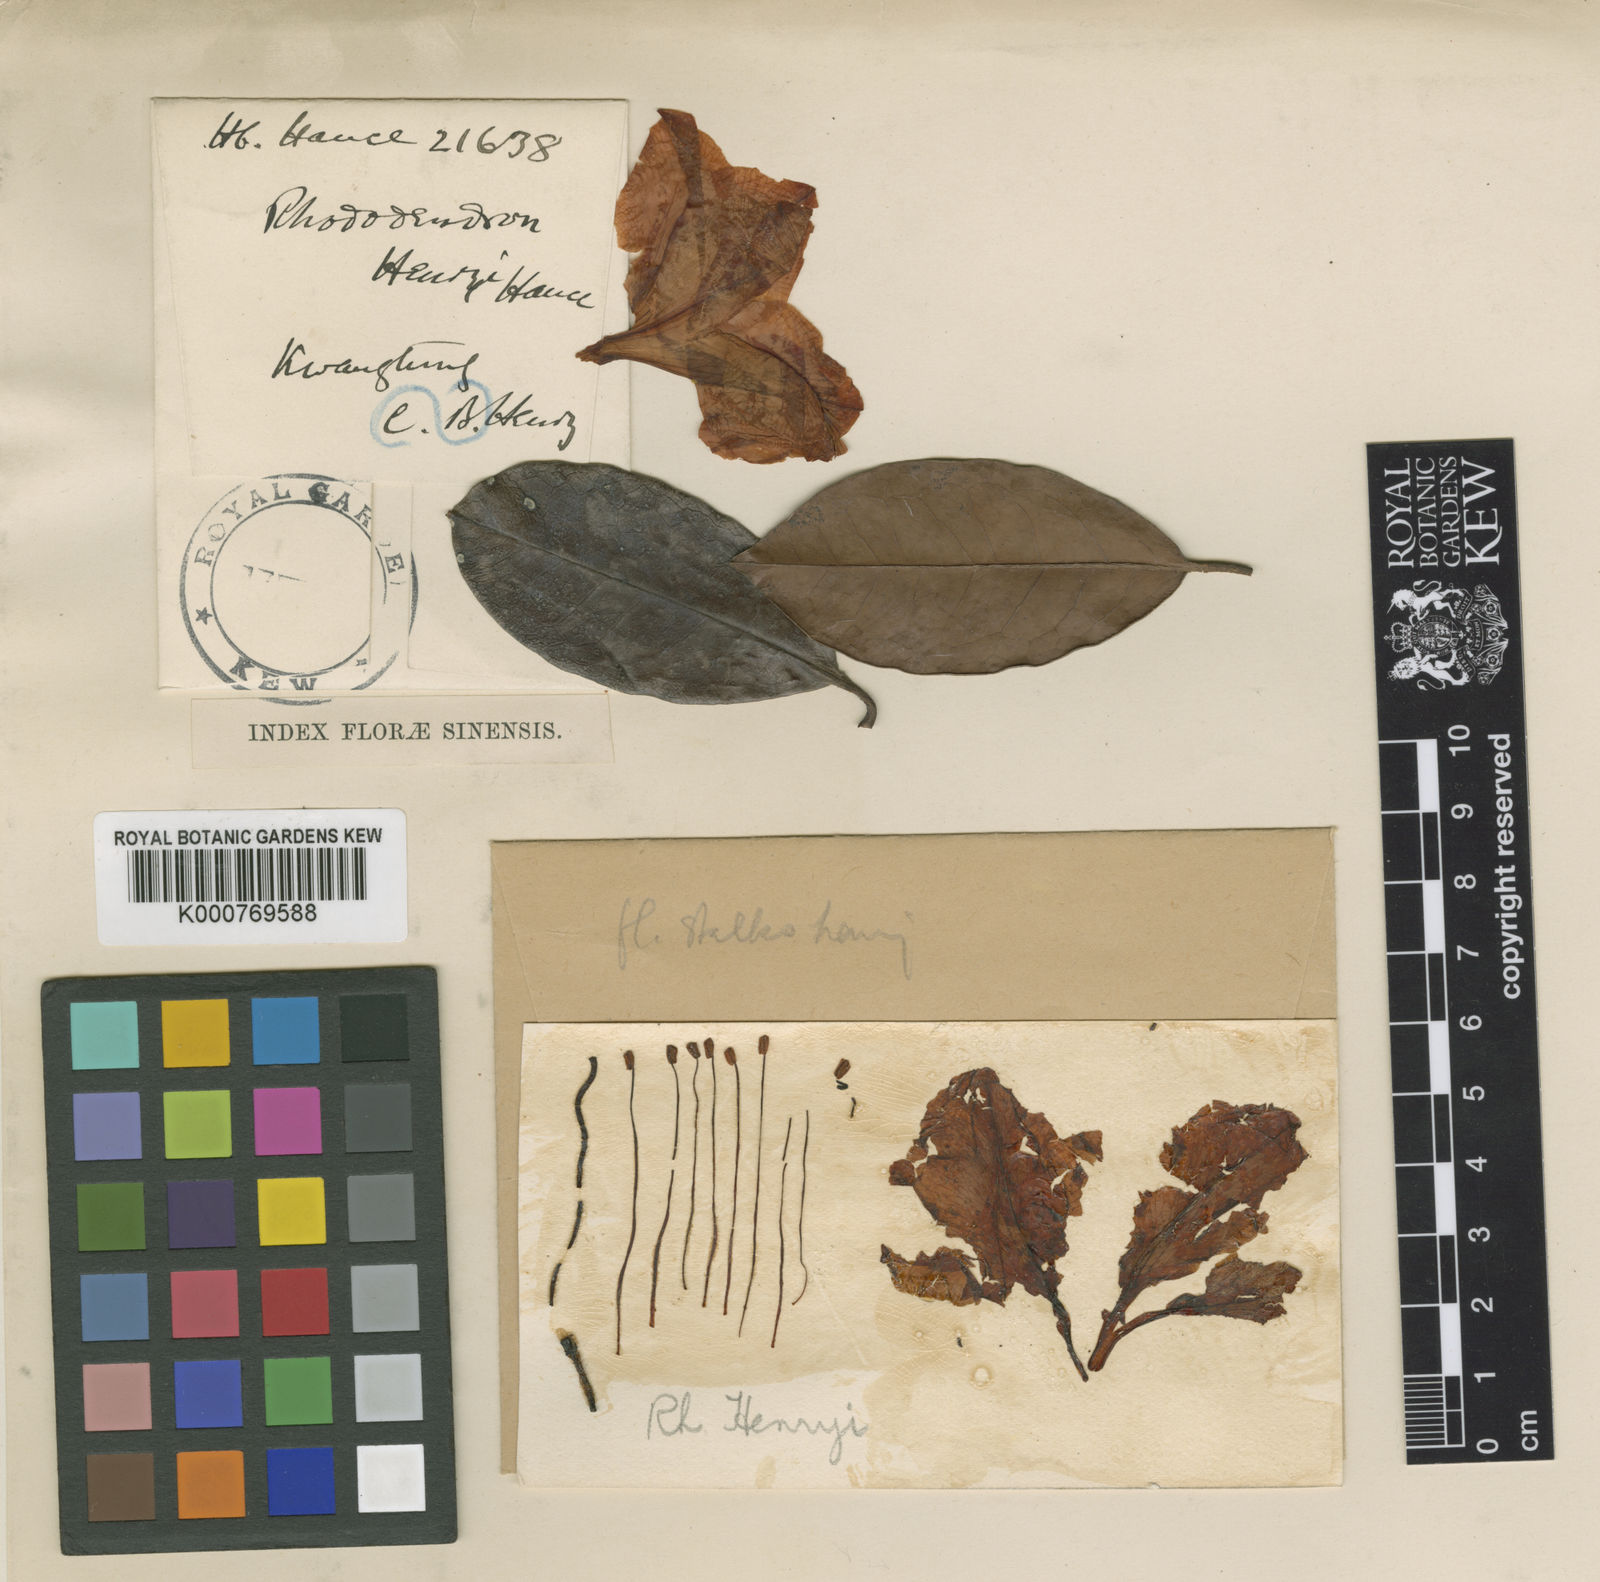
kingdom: Plantae
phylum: Tracheophyta
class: Magnoliopsida
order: Ericales
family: Ericaceae
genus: Rhododendron
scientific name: Rhododendron henryi
